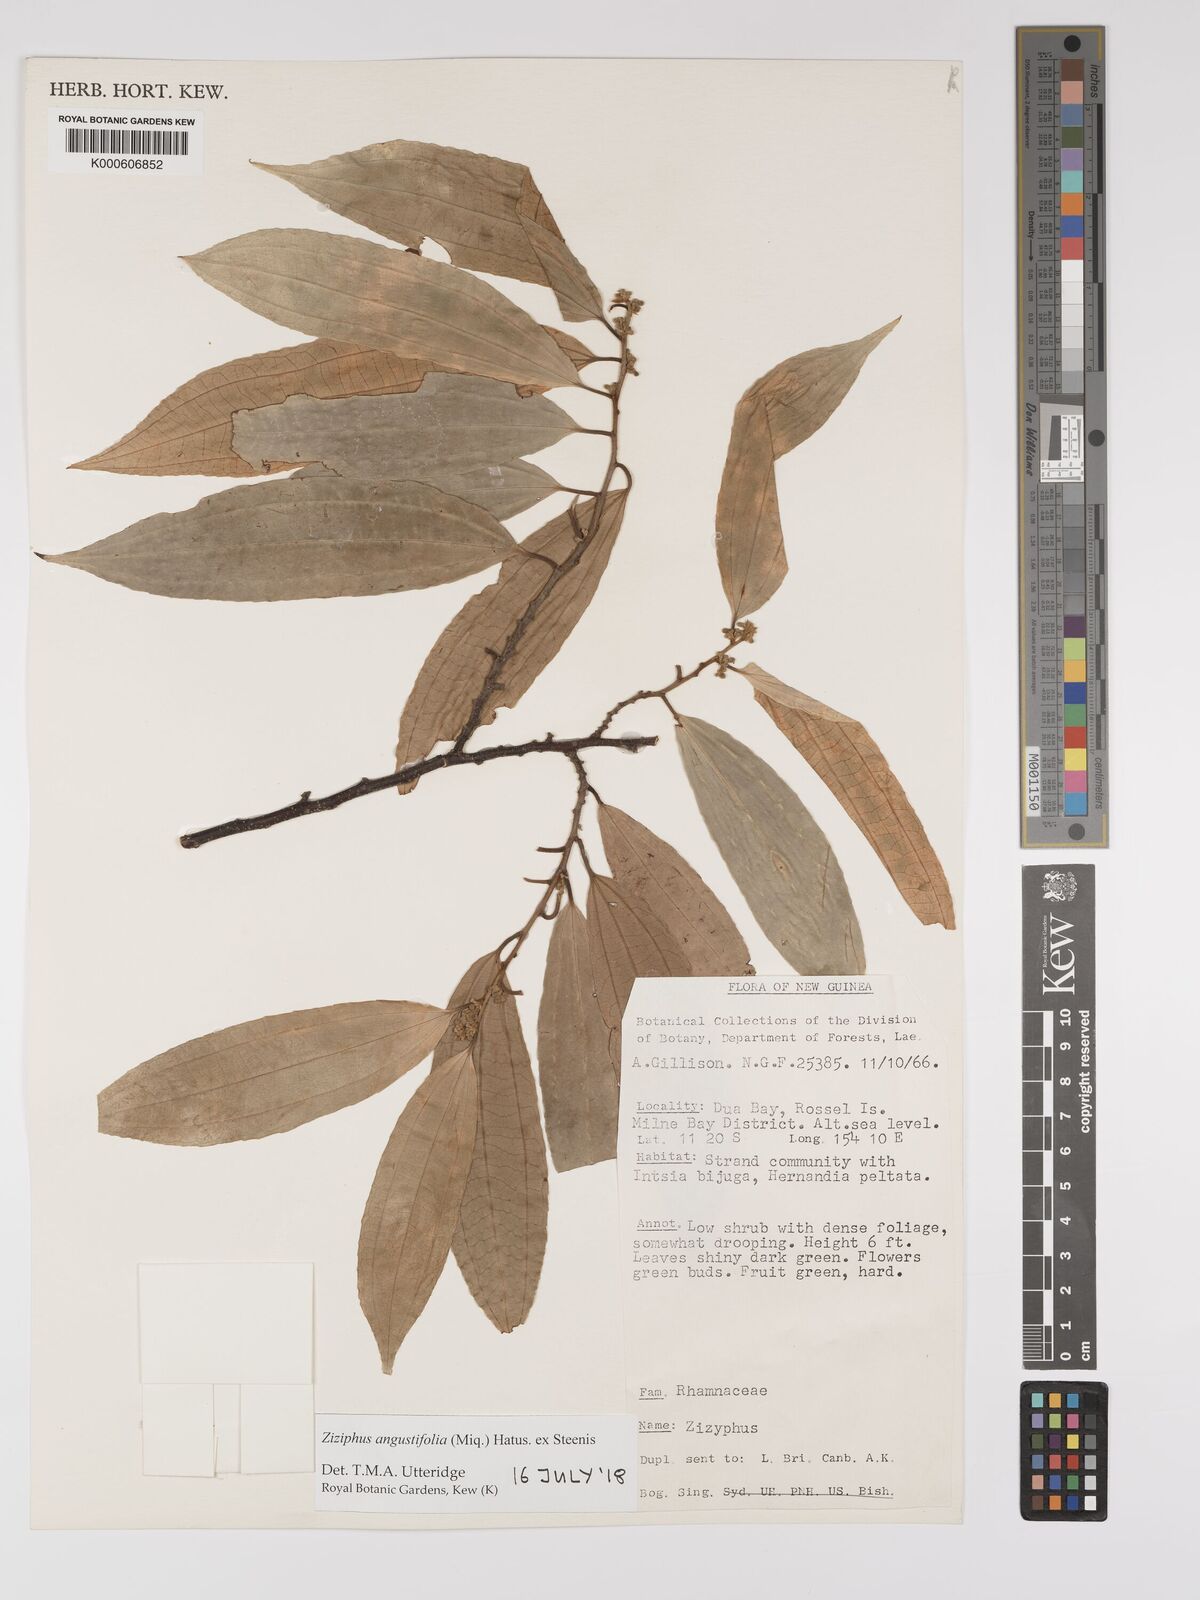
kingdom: Plantae
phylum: Tracheophyta
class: Magnoliopsida
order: Rosales
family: Rhamnaceae
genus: Ziziphus
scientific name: Ziziphus angustifolia
